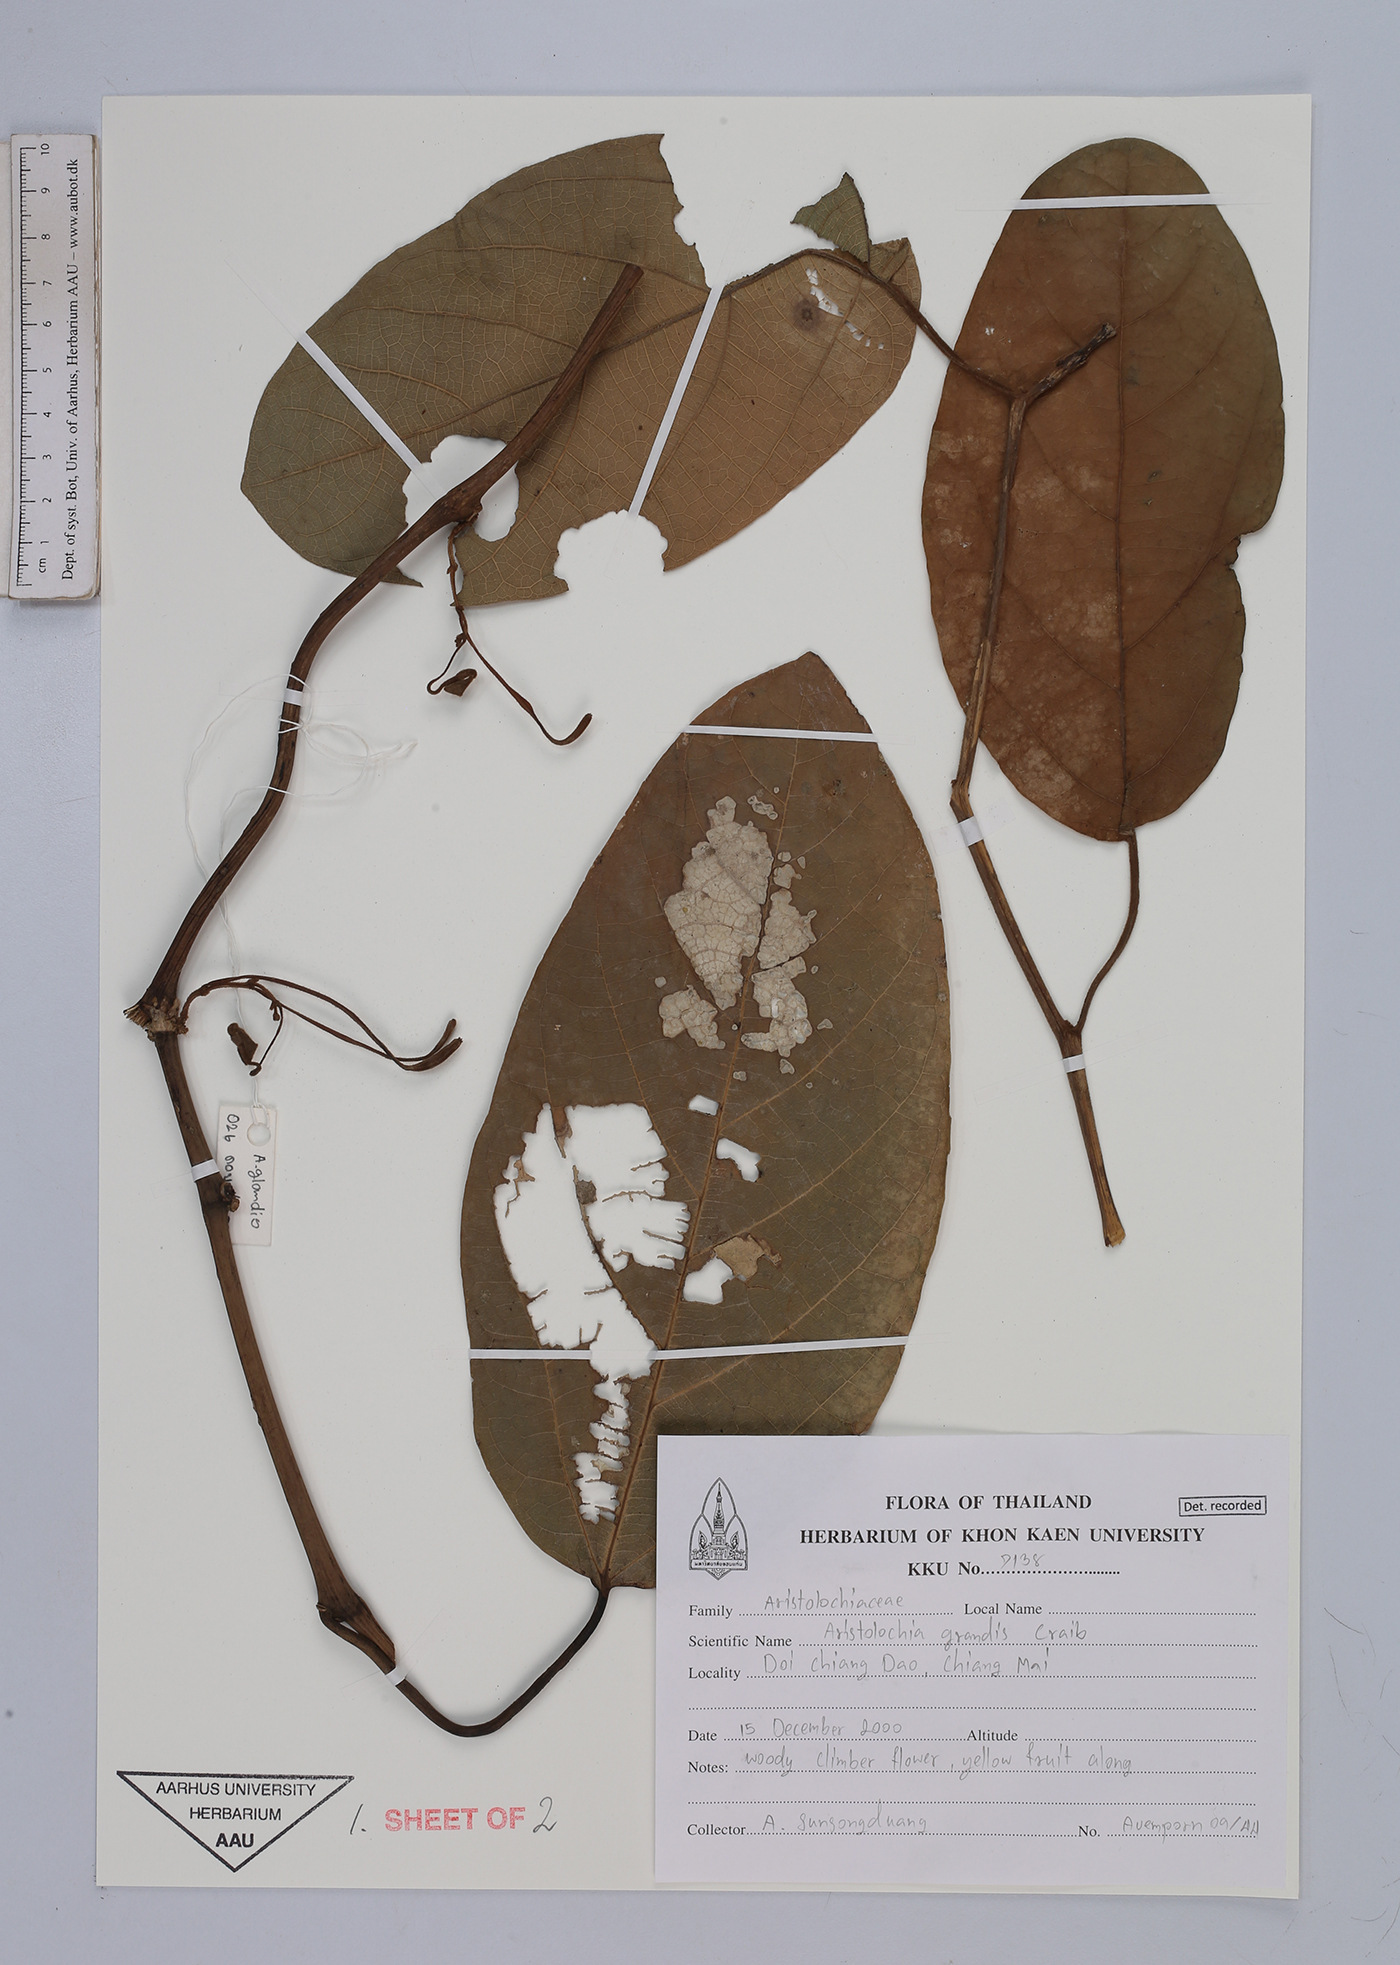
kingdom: Plantae
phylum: Tracheophyta
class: Magnoliopsida
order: Piperales
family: Aristolochiaceae
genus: Isotrema
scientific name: Isotrema grande
